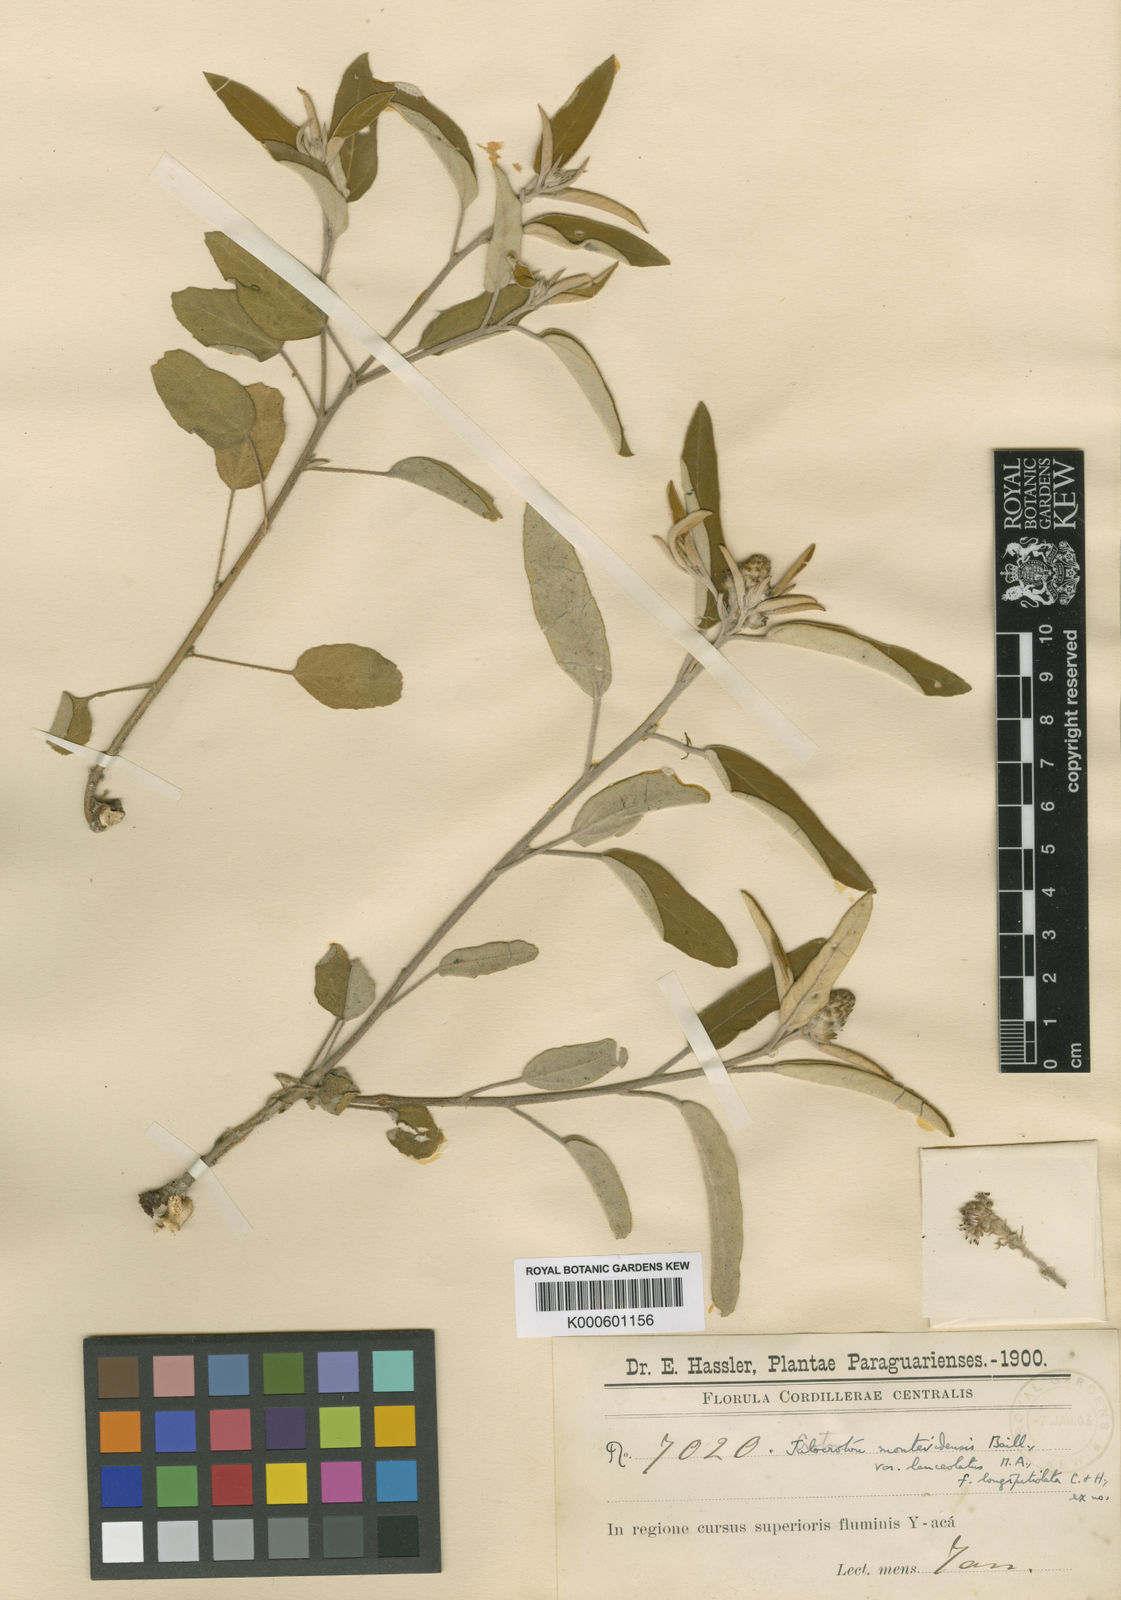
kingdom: Plantae
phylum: Tracheophyta
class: Magnoliopsida
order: Malpighiales
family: Euphorbiaceae
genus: Croton
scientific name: Croton rupestris
